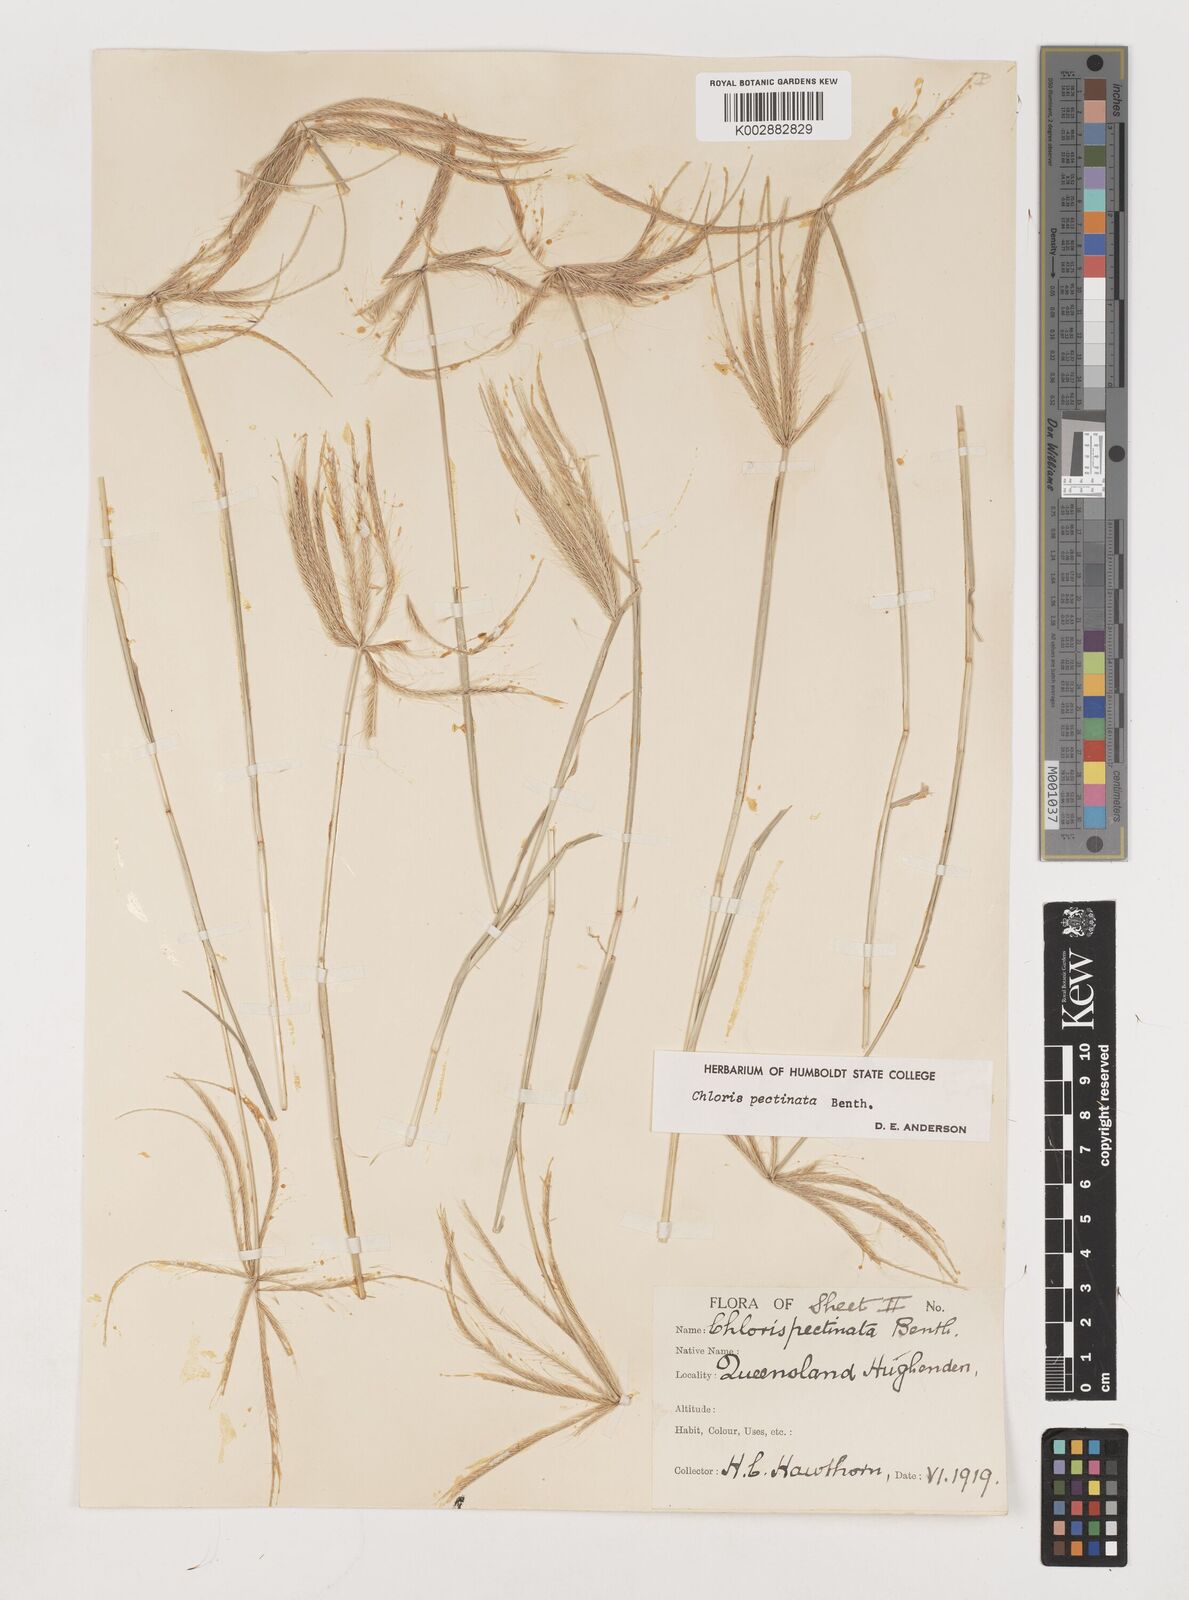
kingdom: Plantae
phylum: Tracheophyta
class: Liliopsida
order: Poales
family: Poaceae
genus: Chloris
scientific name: Chloris pectinata
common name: Comb windmill grass
